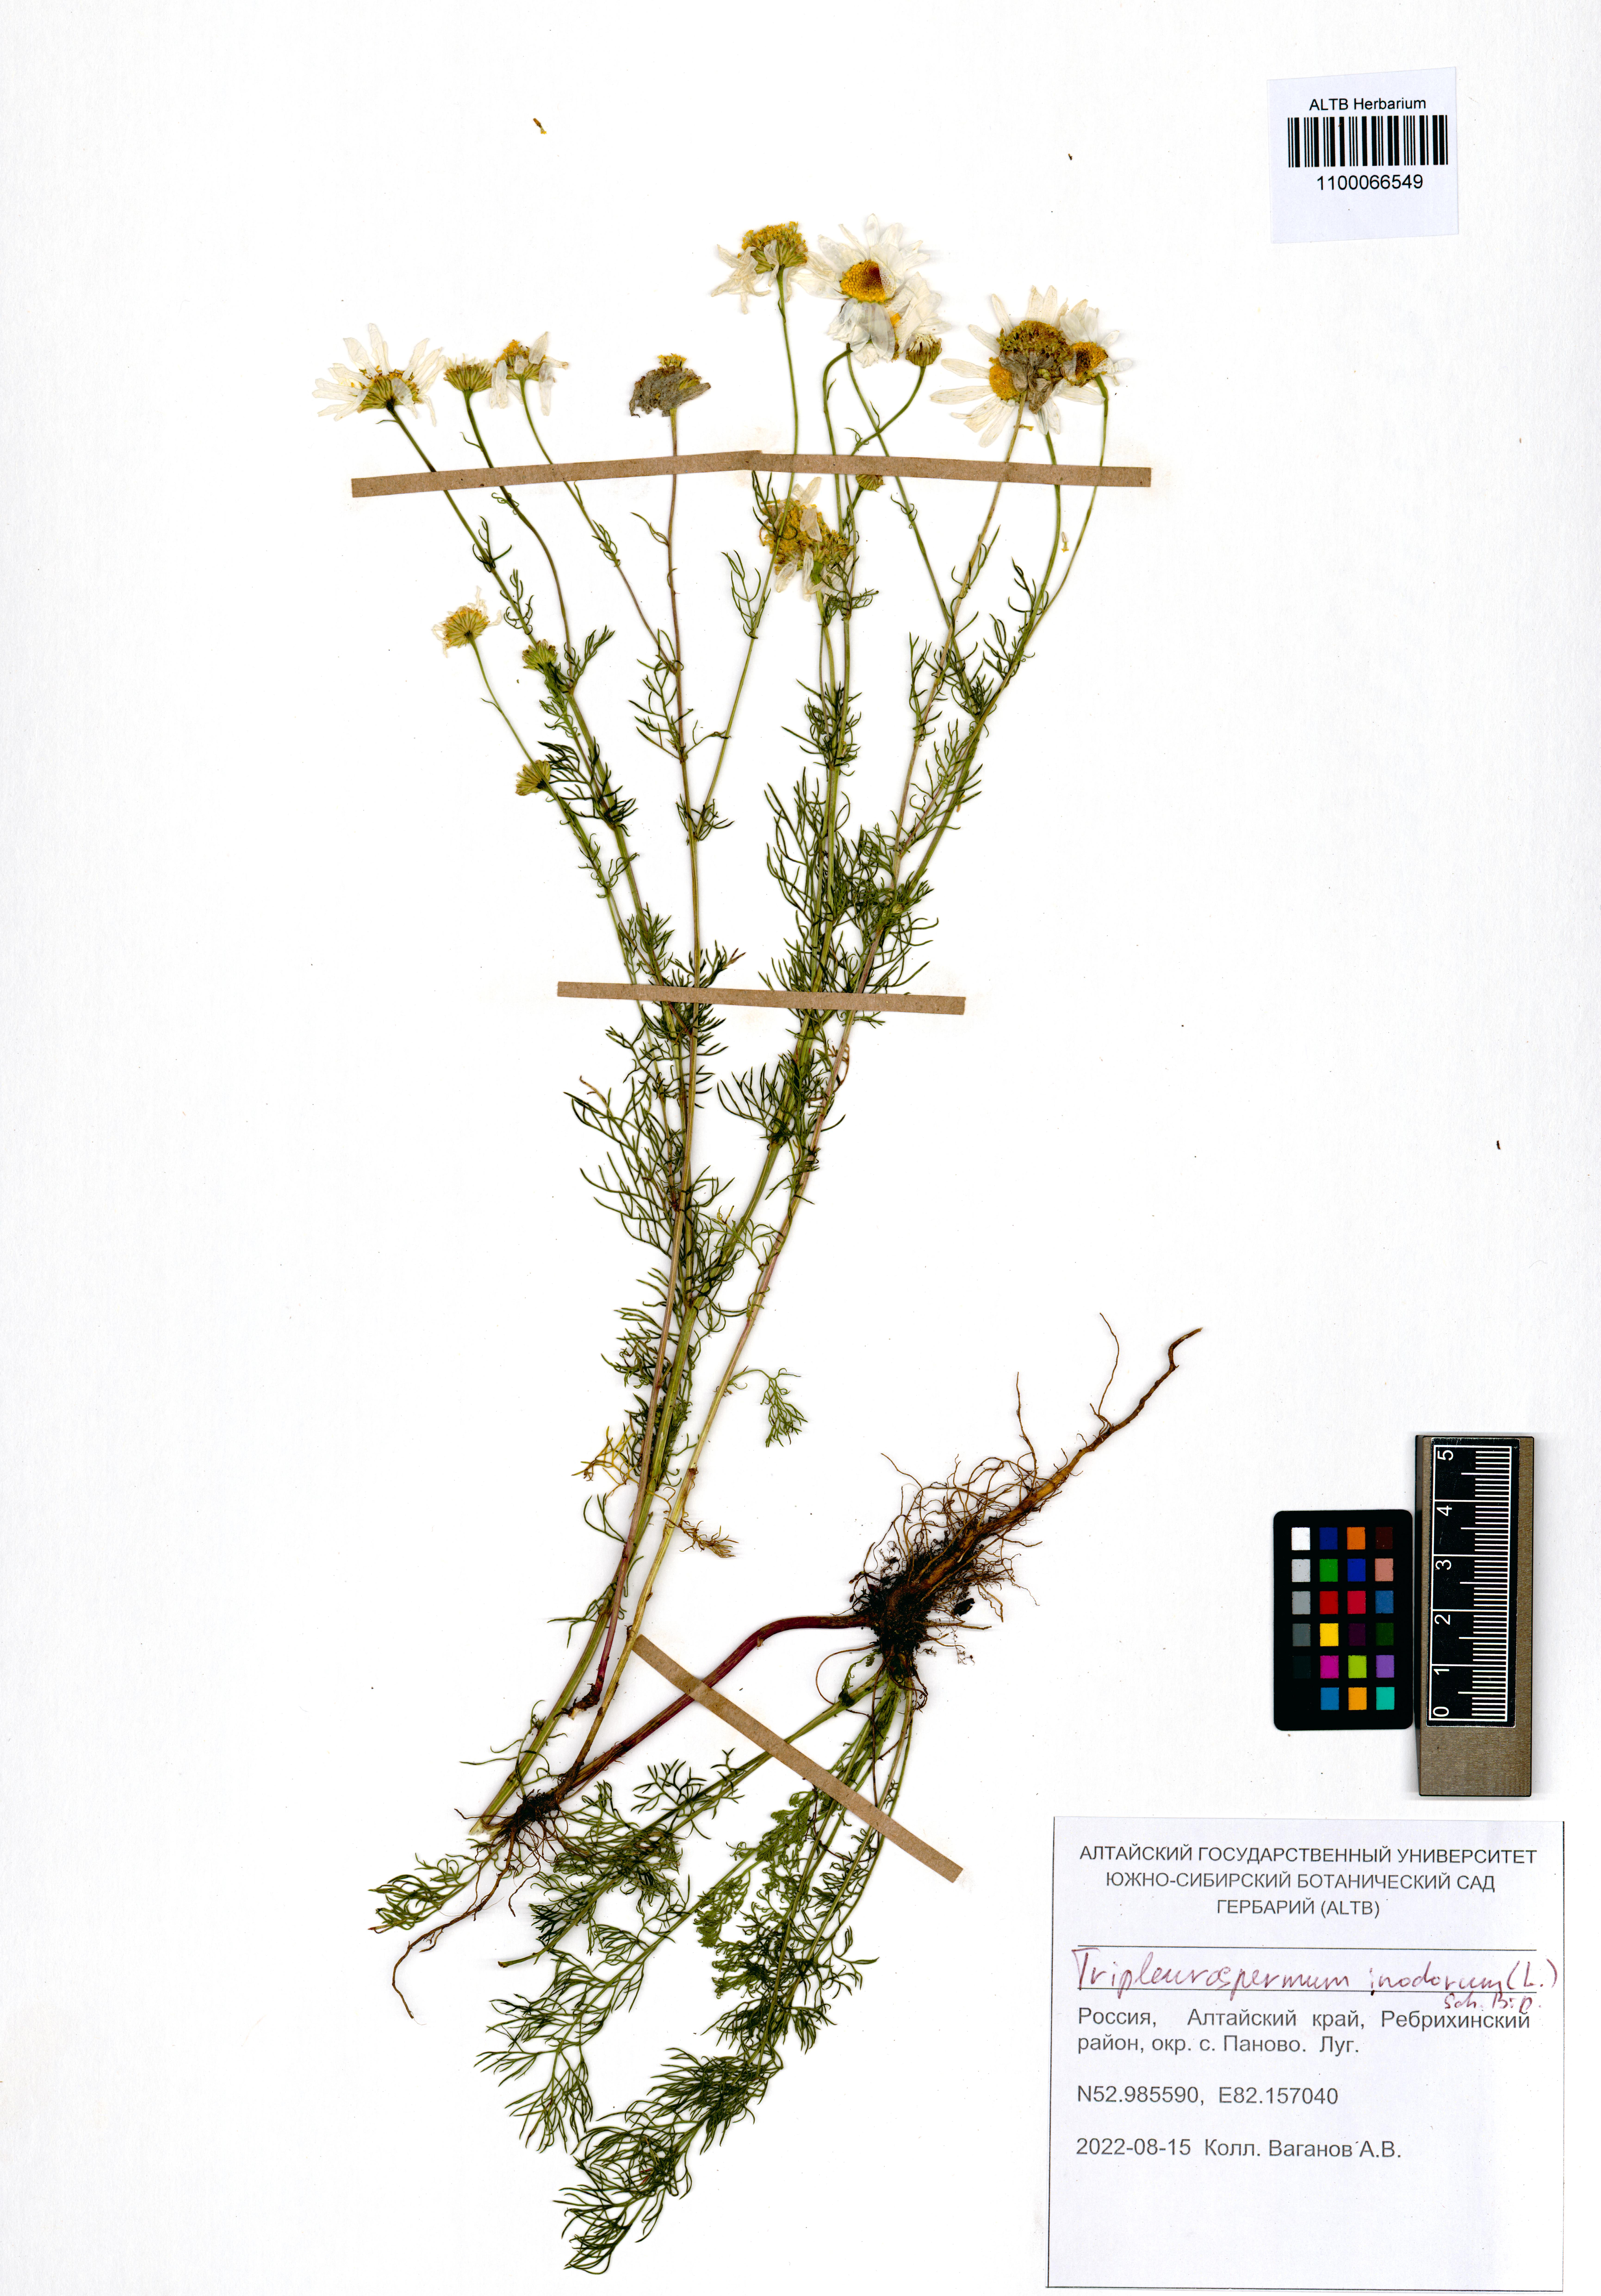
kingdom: Plantae
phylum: Tracheophyta
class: Magnoliopsida
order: Asterales
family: Asteraceae
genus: Tripleurospermum
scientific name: Tripleurospermum inodorum
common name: Scentless mayweed
